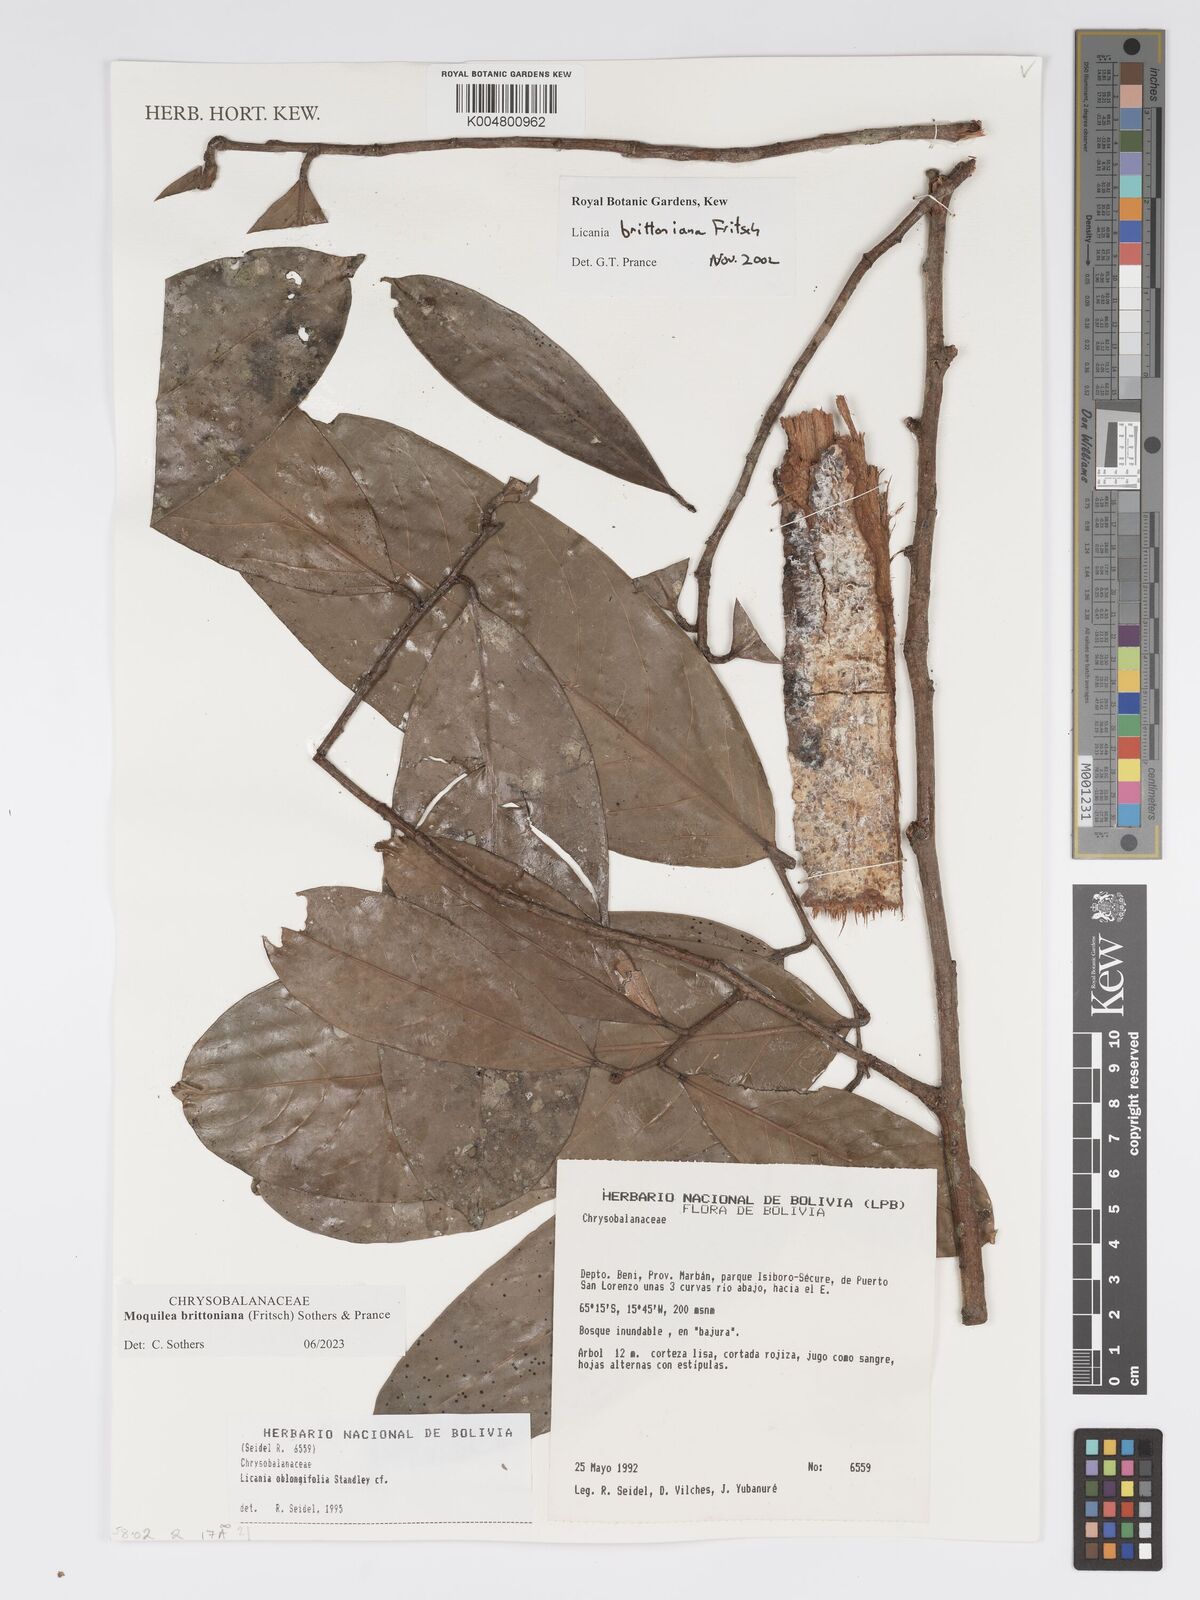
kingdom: Plantae
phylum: Tracheophyta
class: Magnoliopsida
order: Malpighiales
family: Chrysobalanaceae
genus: Moquilea
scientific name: Moquilea brittoniana
